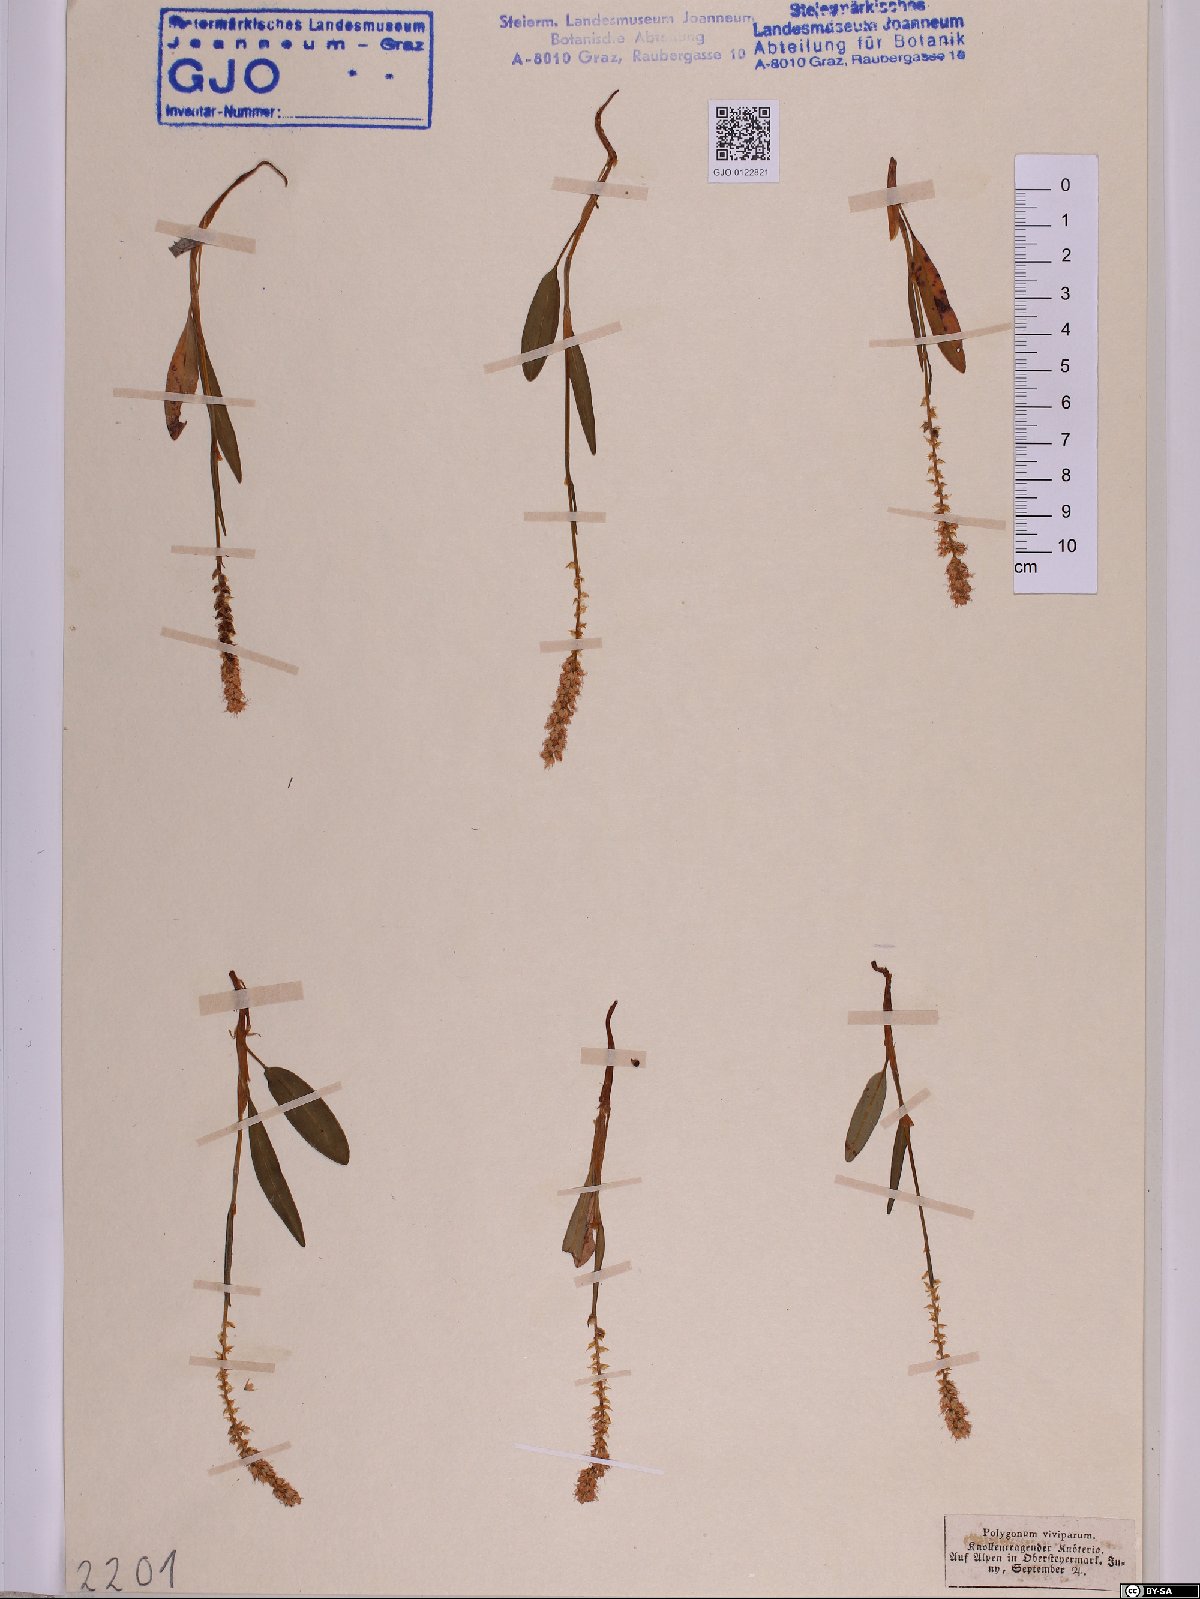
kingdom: Plantae
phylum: Tracheophyta
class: Magnoliopsida
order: Caryophyllales
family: Polygonaceae
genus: Bistorta
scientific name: Bistorta vivipara
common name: Alpine bistort
